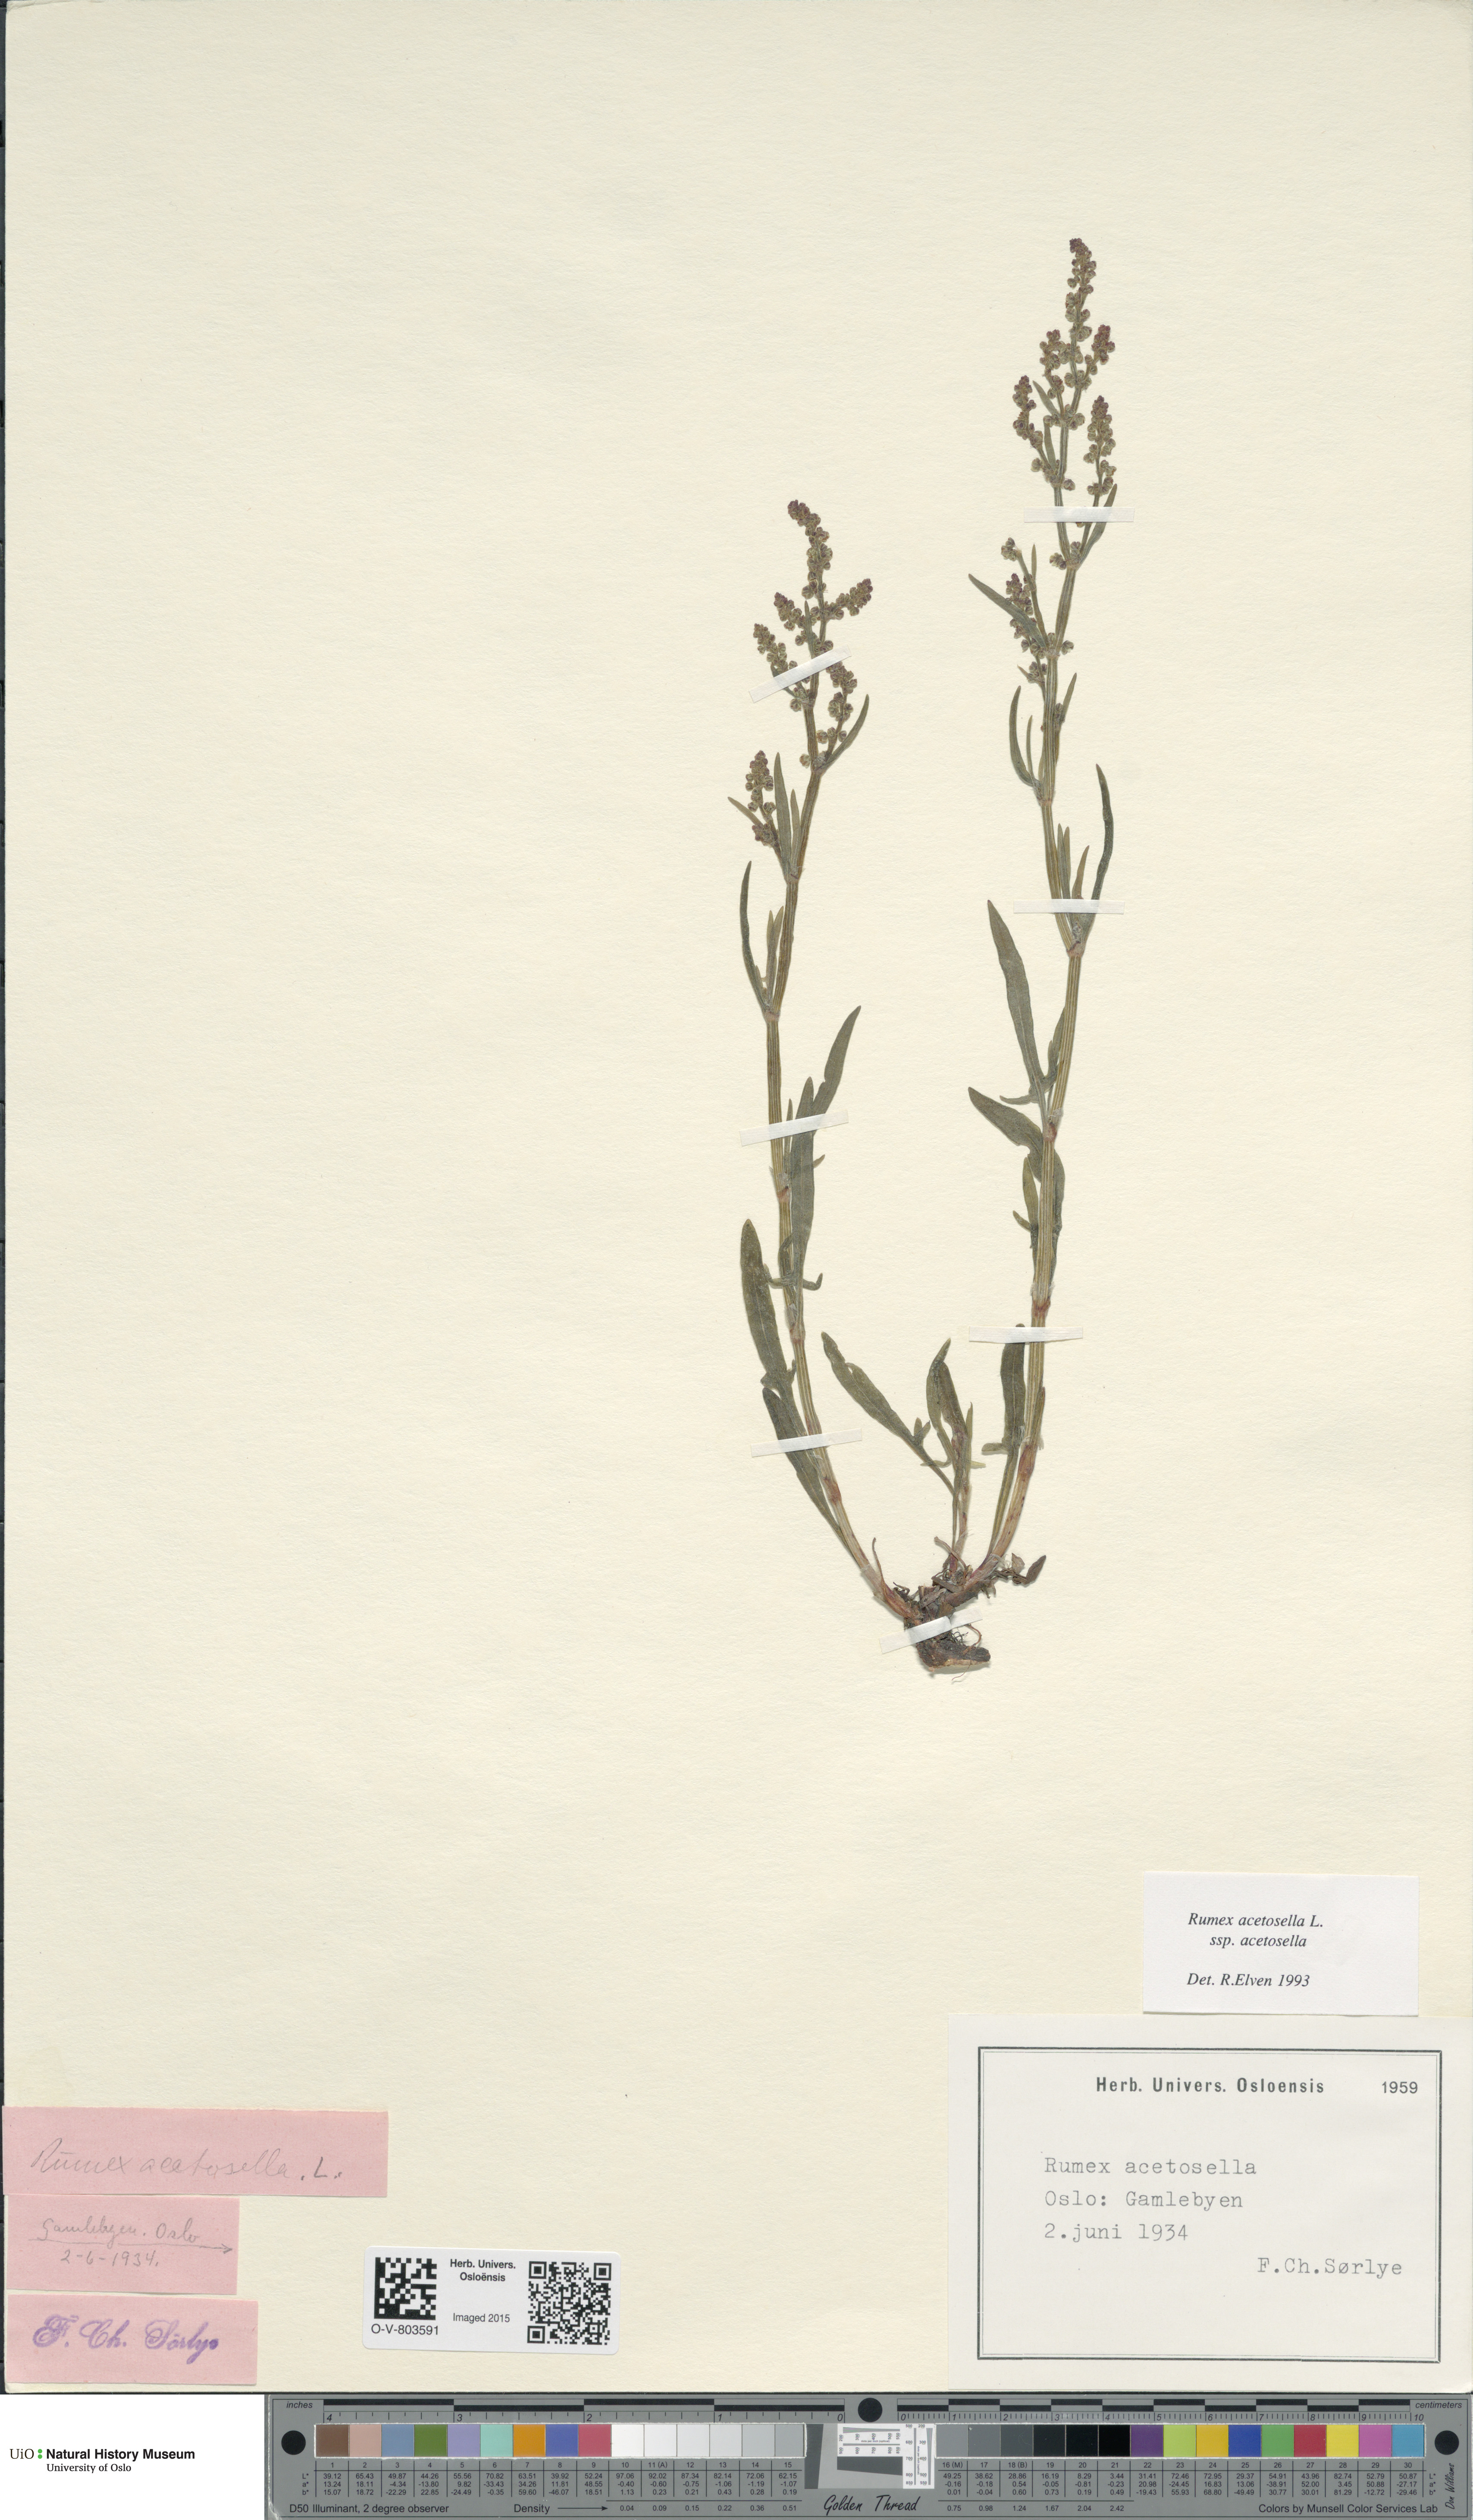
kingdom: Plantae
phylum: Tracheophyta
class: Magnoliopsida
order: Caryophyllales
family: Polygonaceae
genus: Rumex
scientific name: Rumex acetosella
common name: Common sheep sorrel
